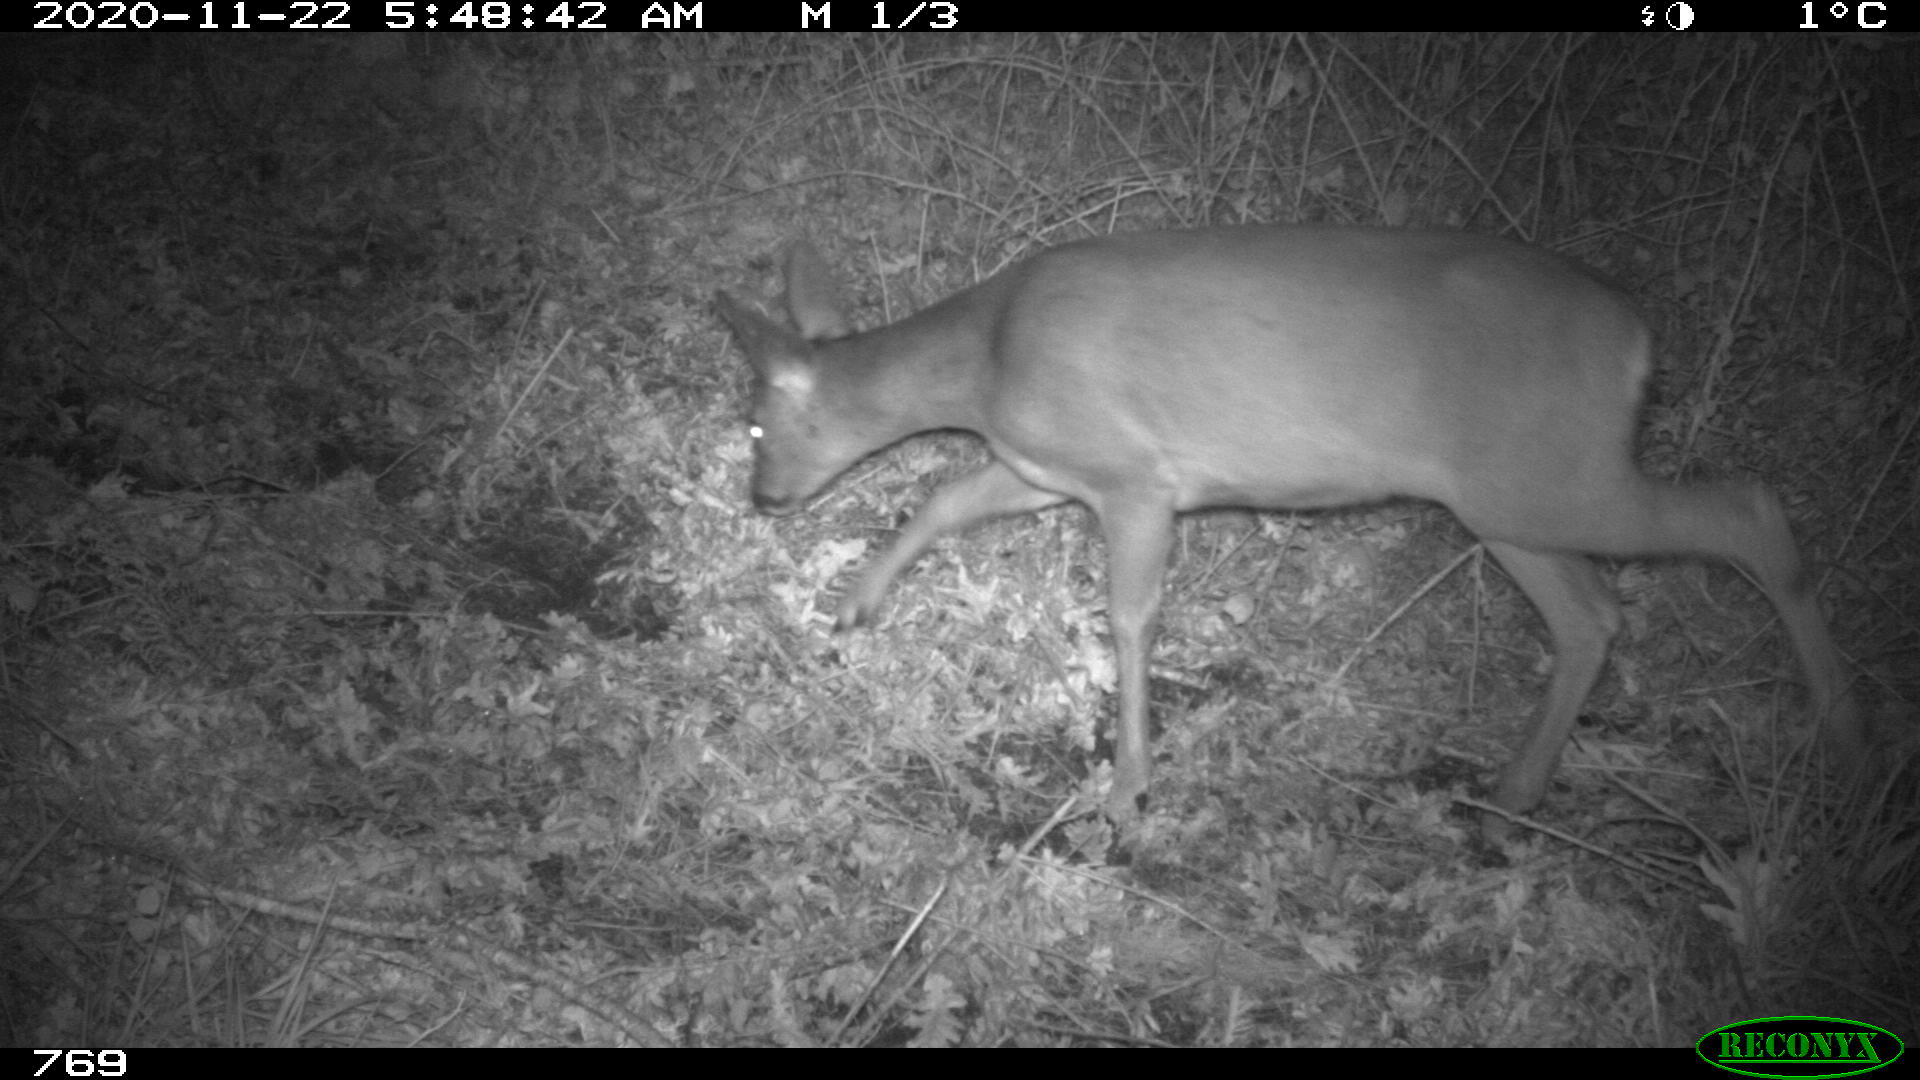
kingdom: Animalia
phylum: Chordata
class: Mammalia
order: Artiodactyla
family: Cervidae
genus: Capreolus
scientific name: Capreolus capreolus
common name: Western roe deer
